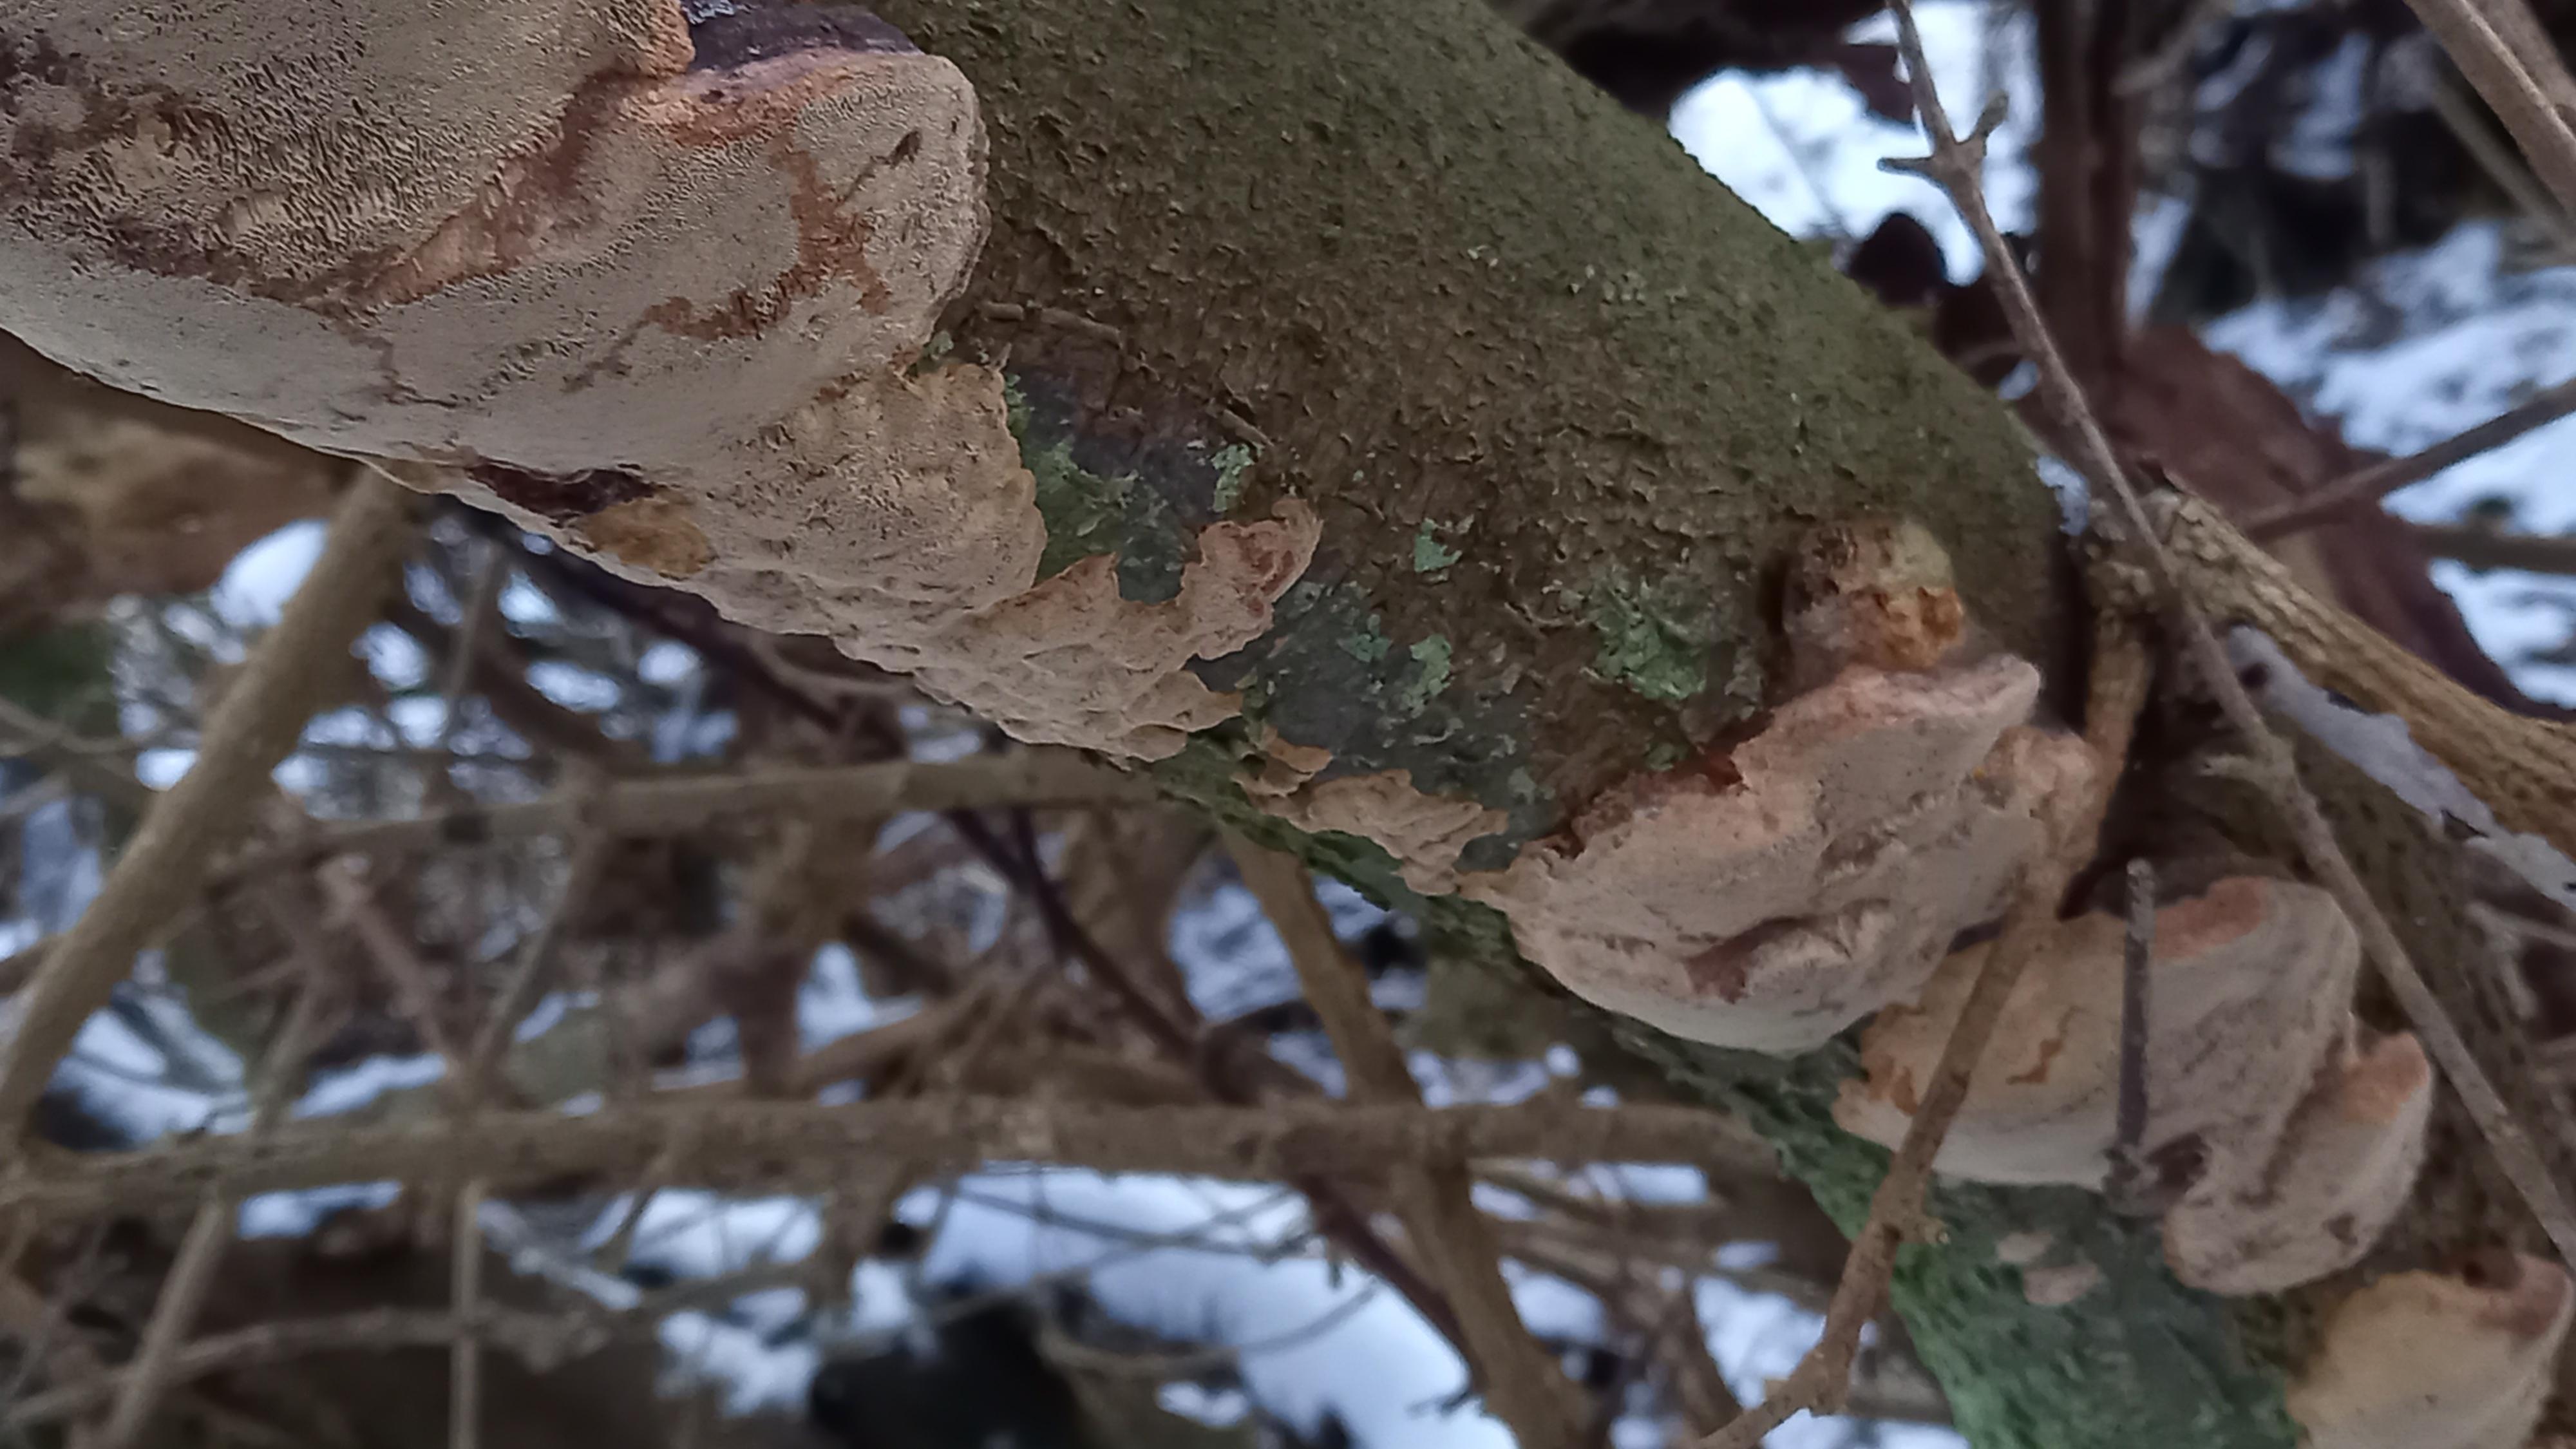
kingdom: Fungi
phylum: Basidiomycota
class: Agaricomycetes
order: Hymenochaetales
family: Hymenochaetaceae
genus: Phellinus
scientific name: Phellinus pomaceus
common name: blomme-ildporesvamp
